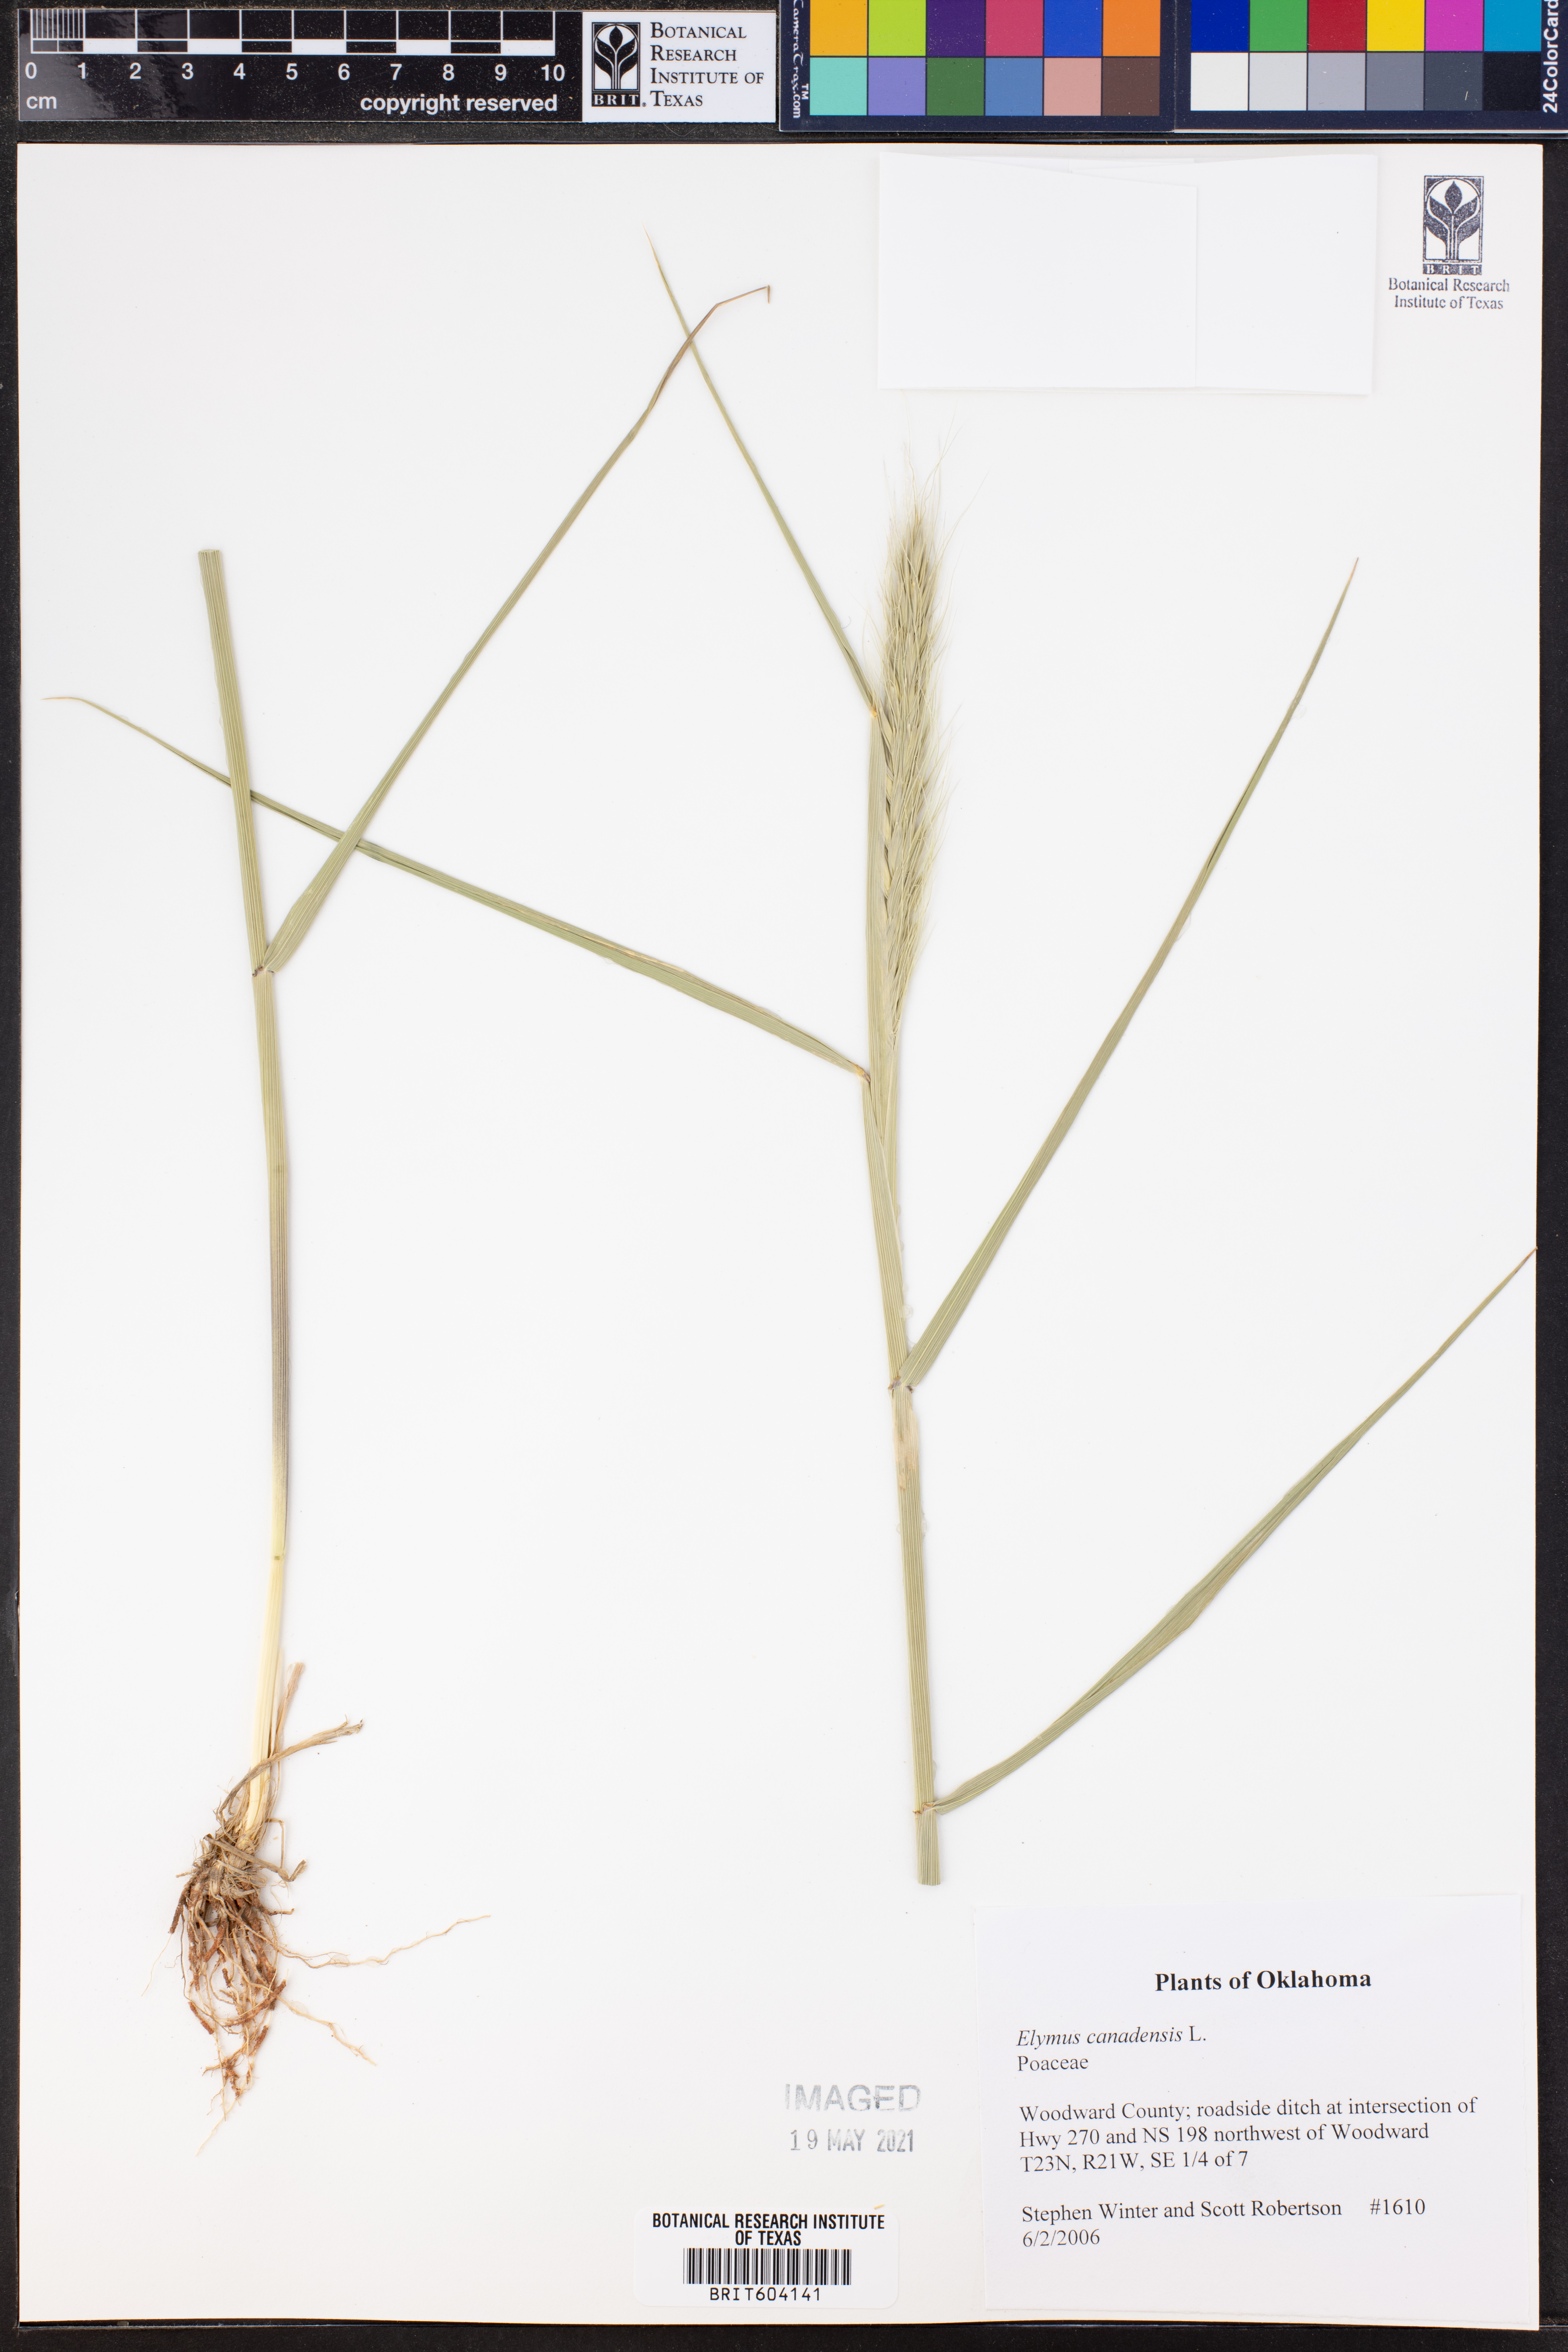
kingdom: Plantae
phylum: Tracheophyta
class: Liliopsida
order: Poales
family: Poaceae
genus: Elymus
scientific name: Elymus canadensis
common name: Canada wild rye
